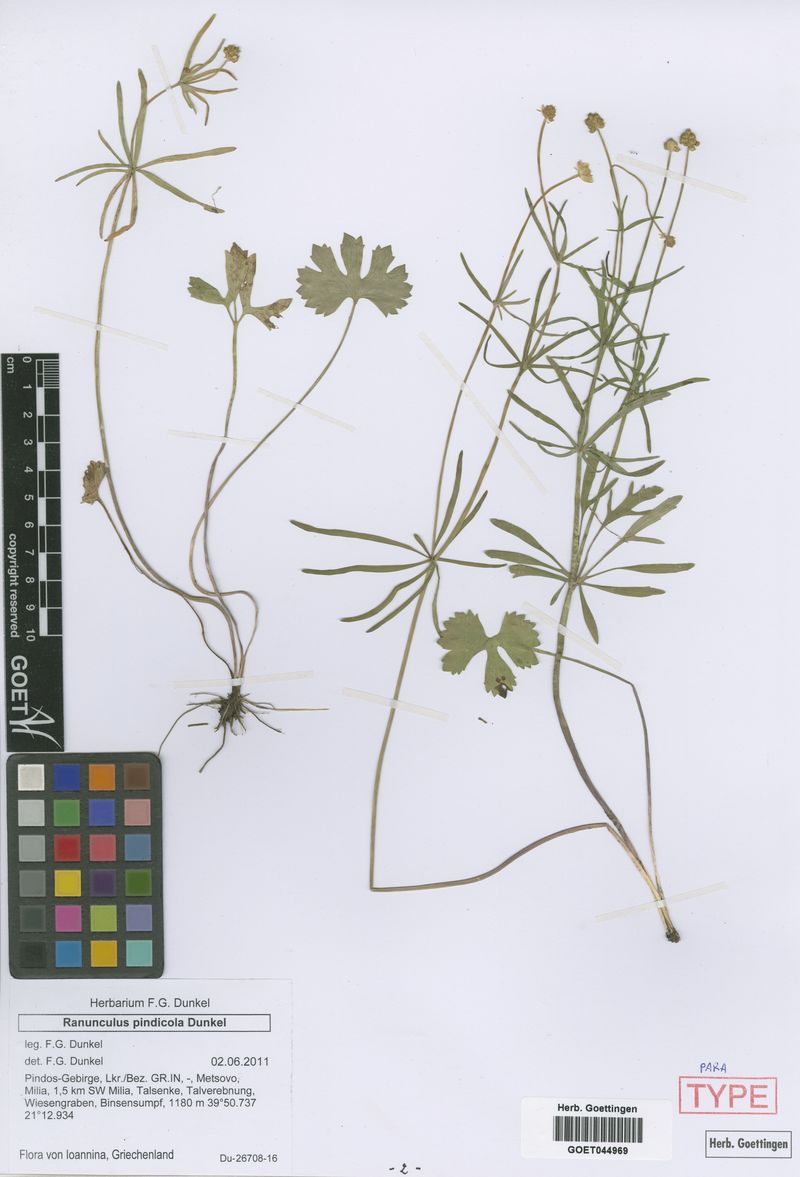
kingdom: Plantae
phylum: Tracheophyta
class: Magnoliopsida
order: Ranunculales
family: Ranunculaceae
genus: Ranunculus
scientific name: Ranunculus pindicola
